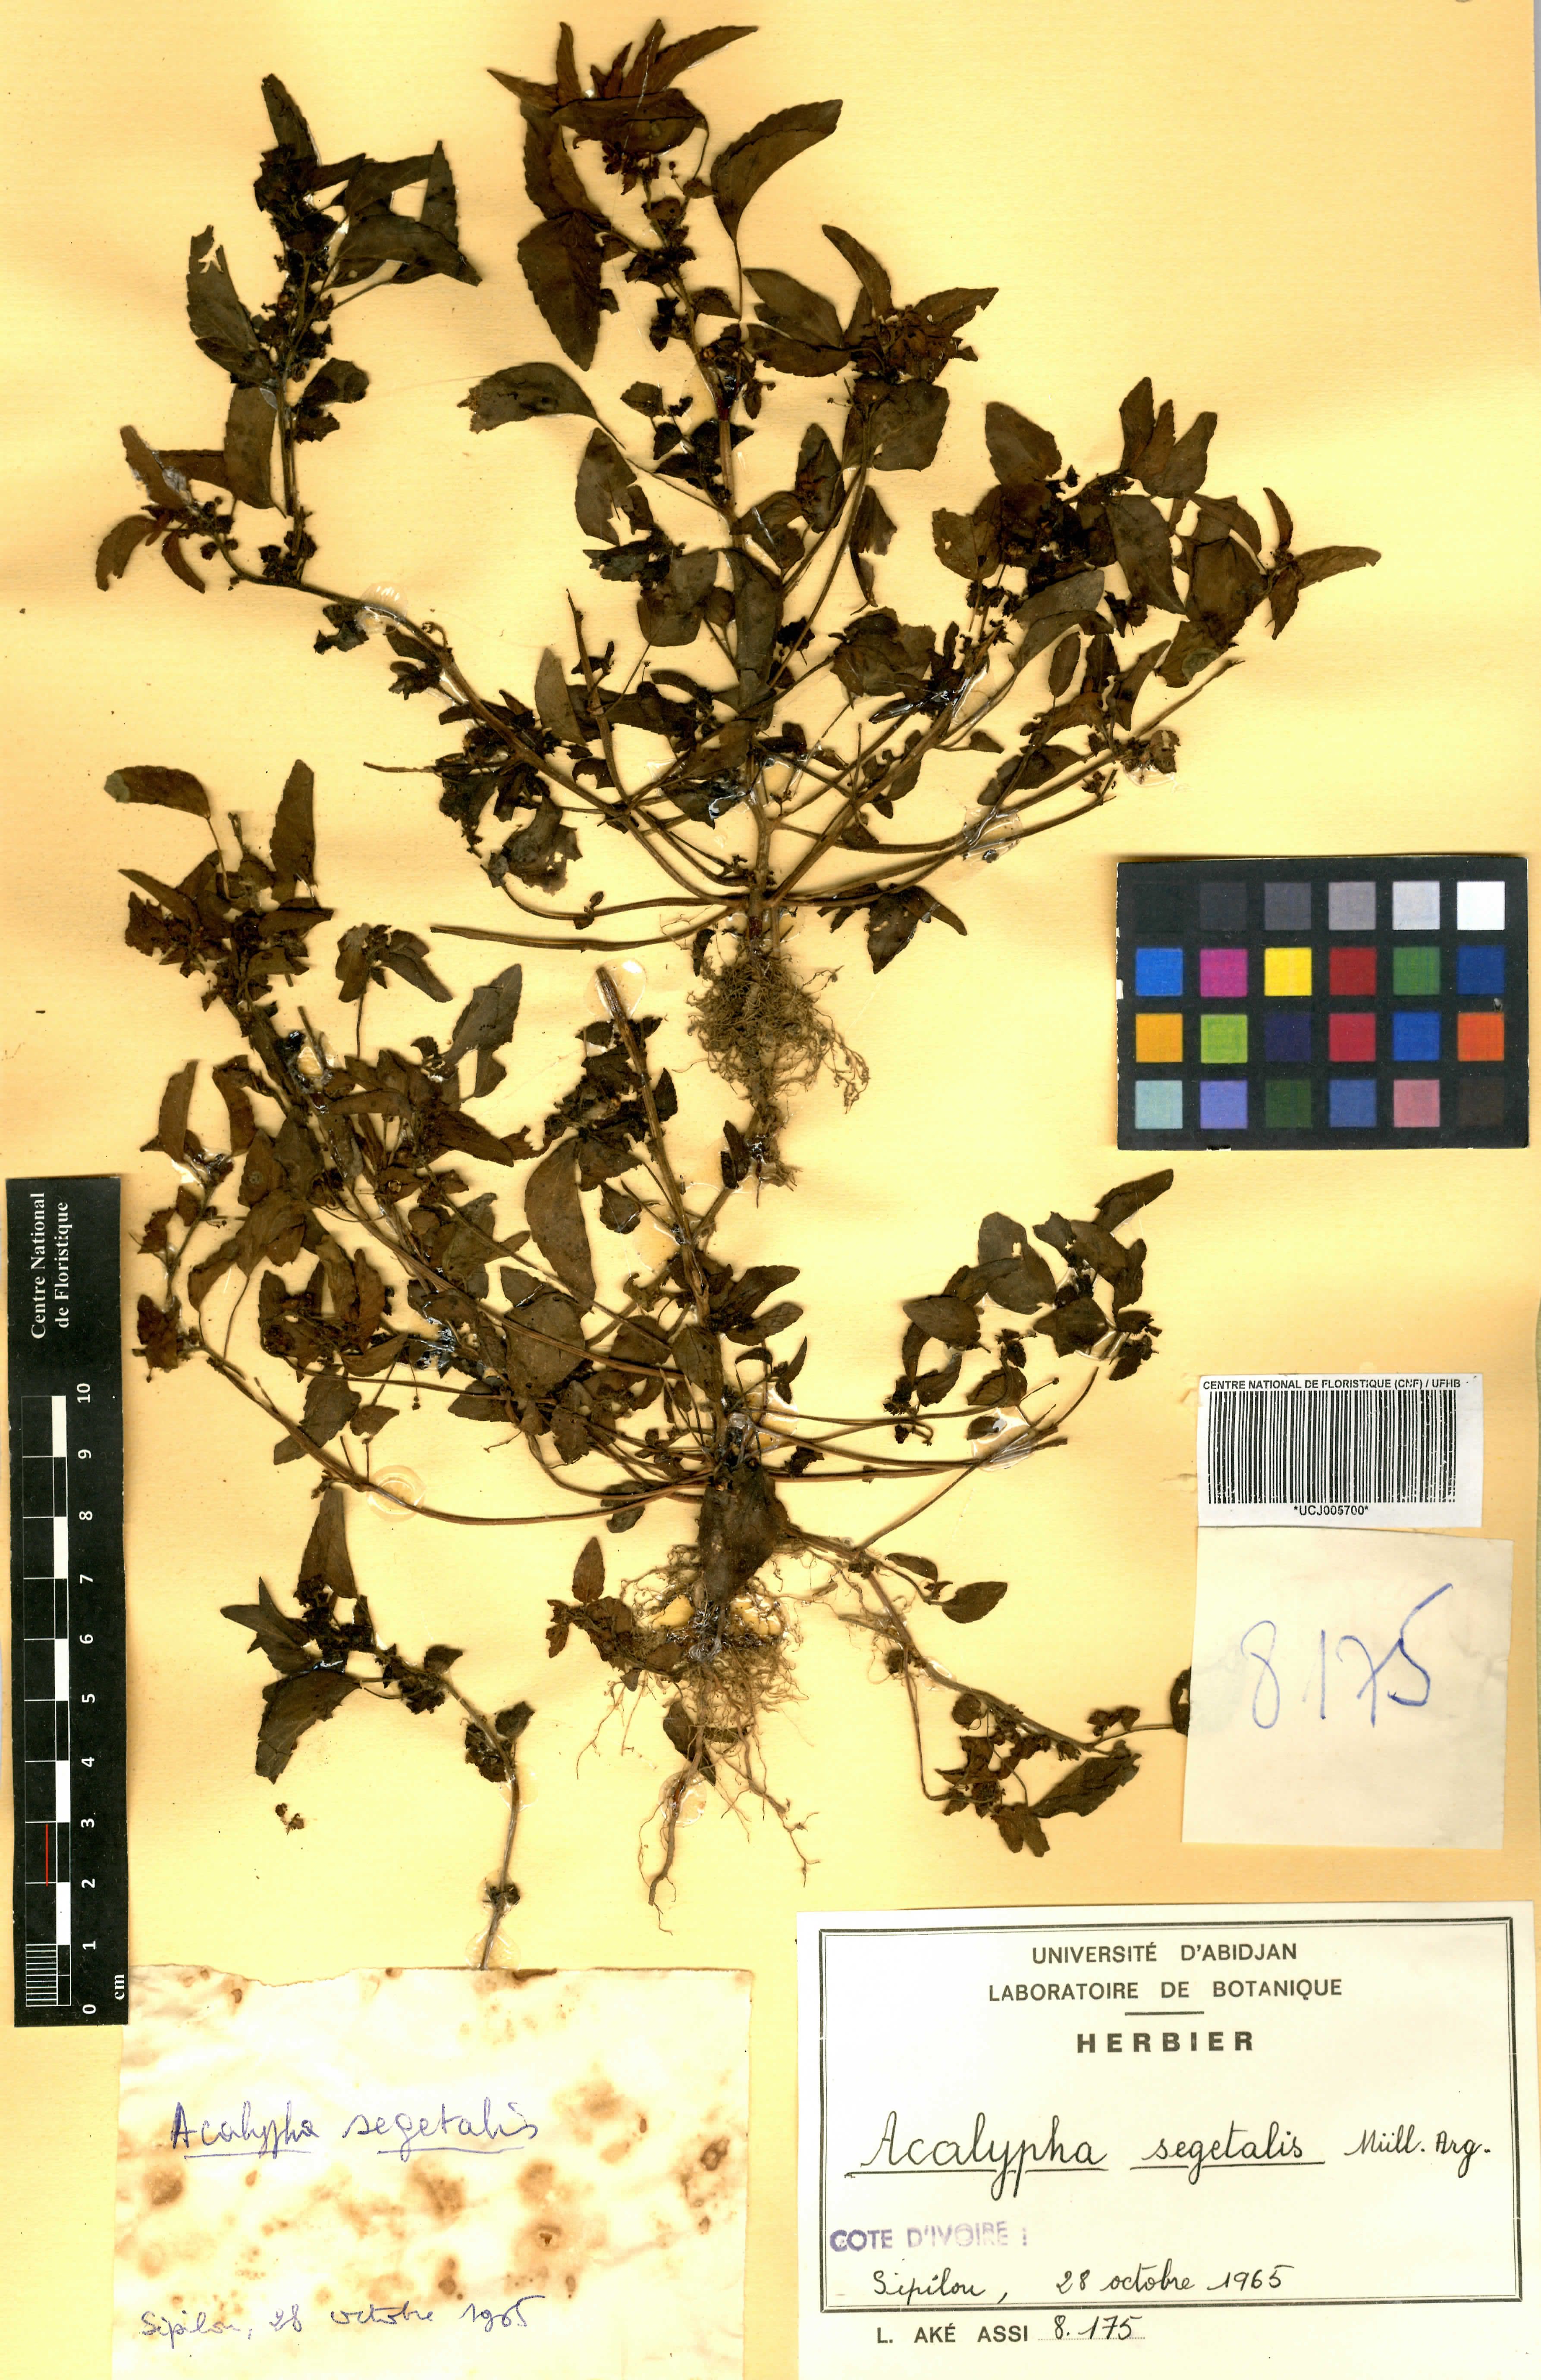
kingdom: Plantae
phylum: Tracheophyta
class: Magnoliopsida
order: Malpighiales
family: Euphorbiaceae
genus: Acalypha
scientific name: Acalypha segetalis
